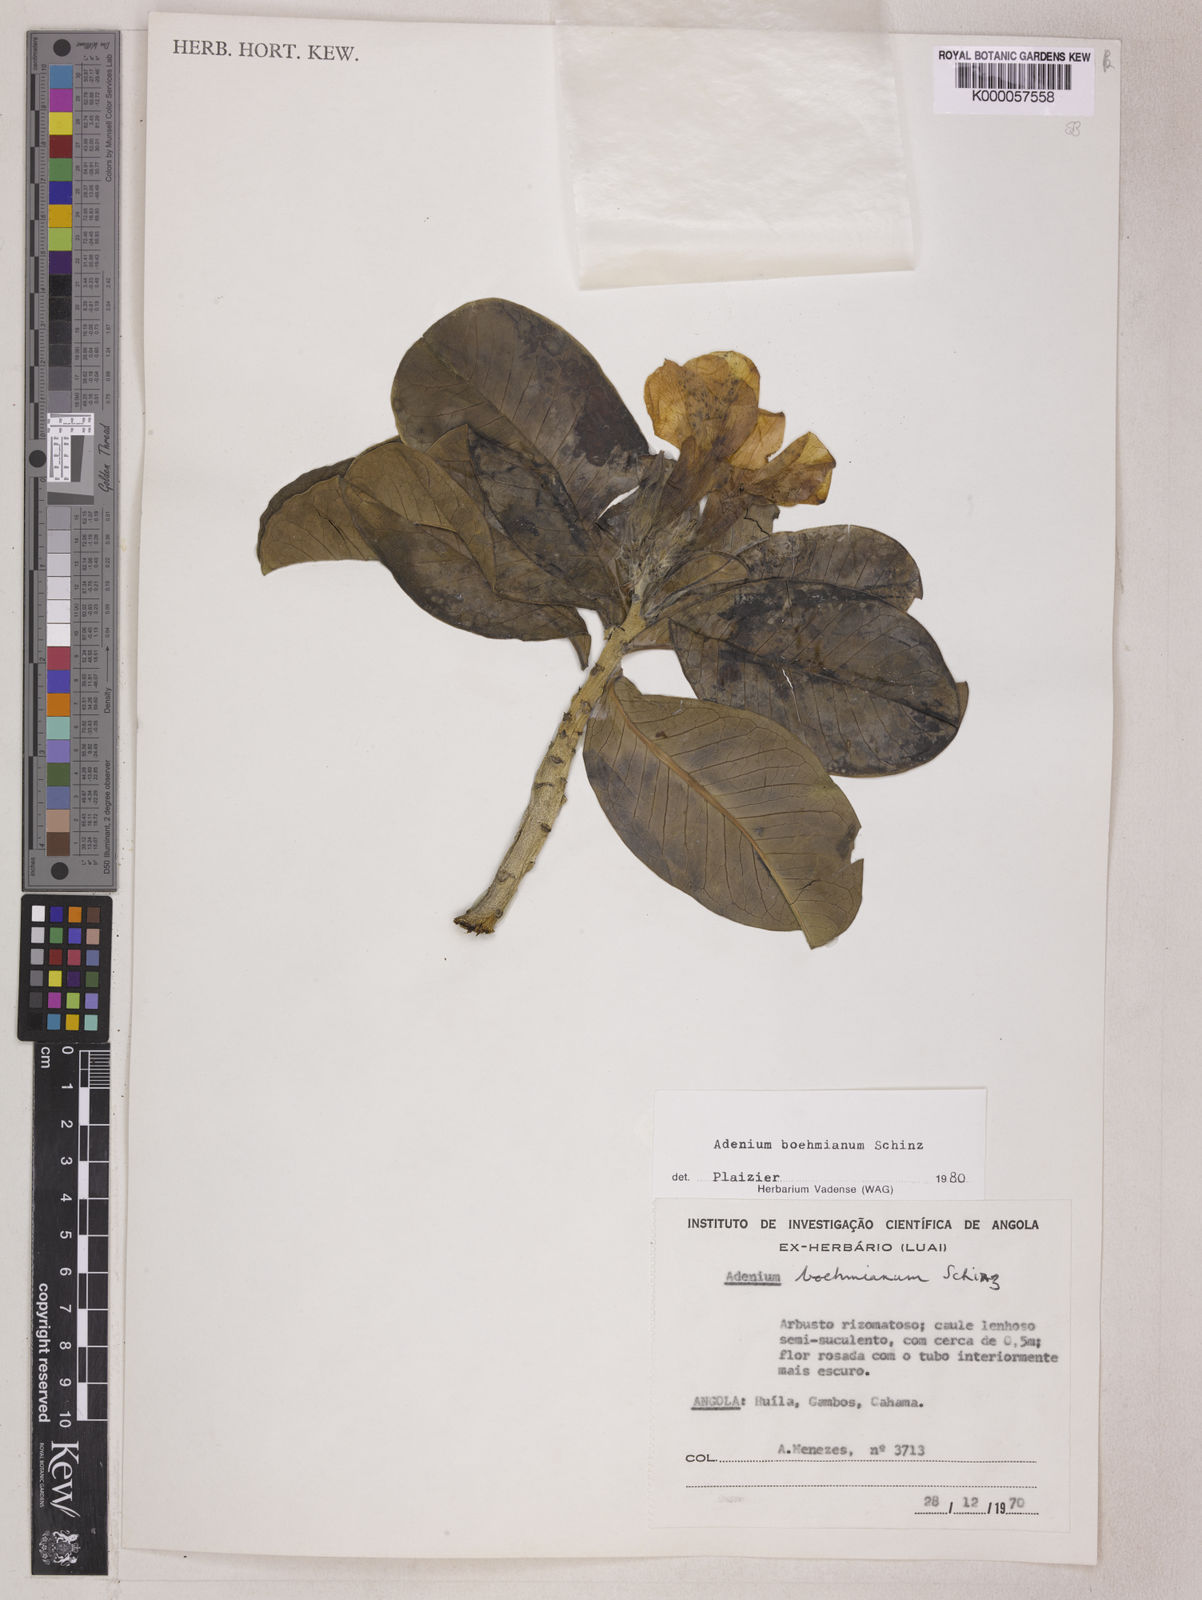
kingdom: Plantae
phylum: Tracheophyta
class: Magnoliopsida
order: Gentianales
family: Apocynaceae
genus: Adenium
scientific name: Adenium obesum
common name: Desert-rose
